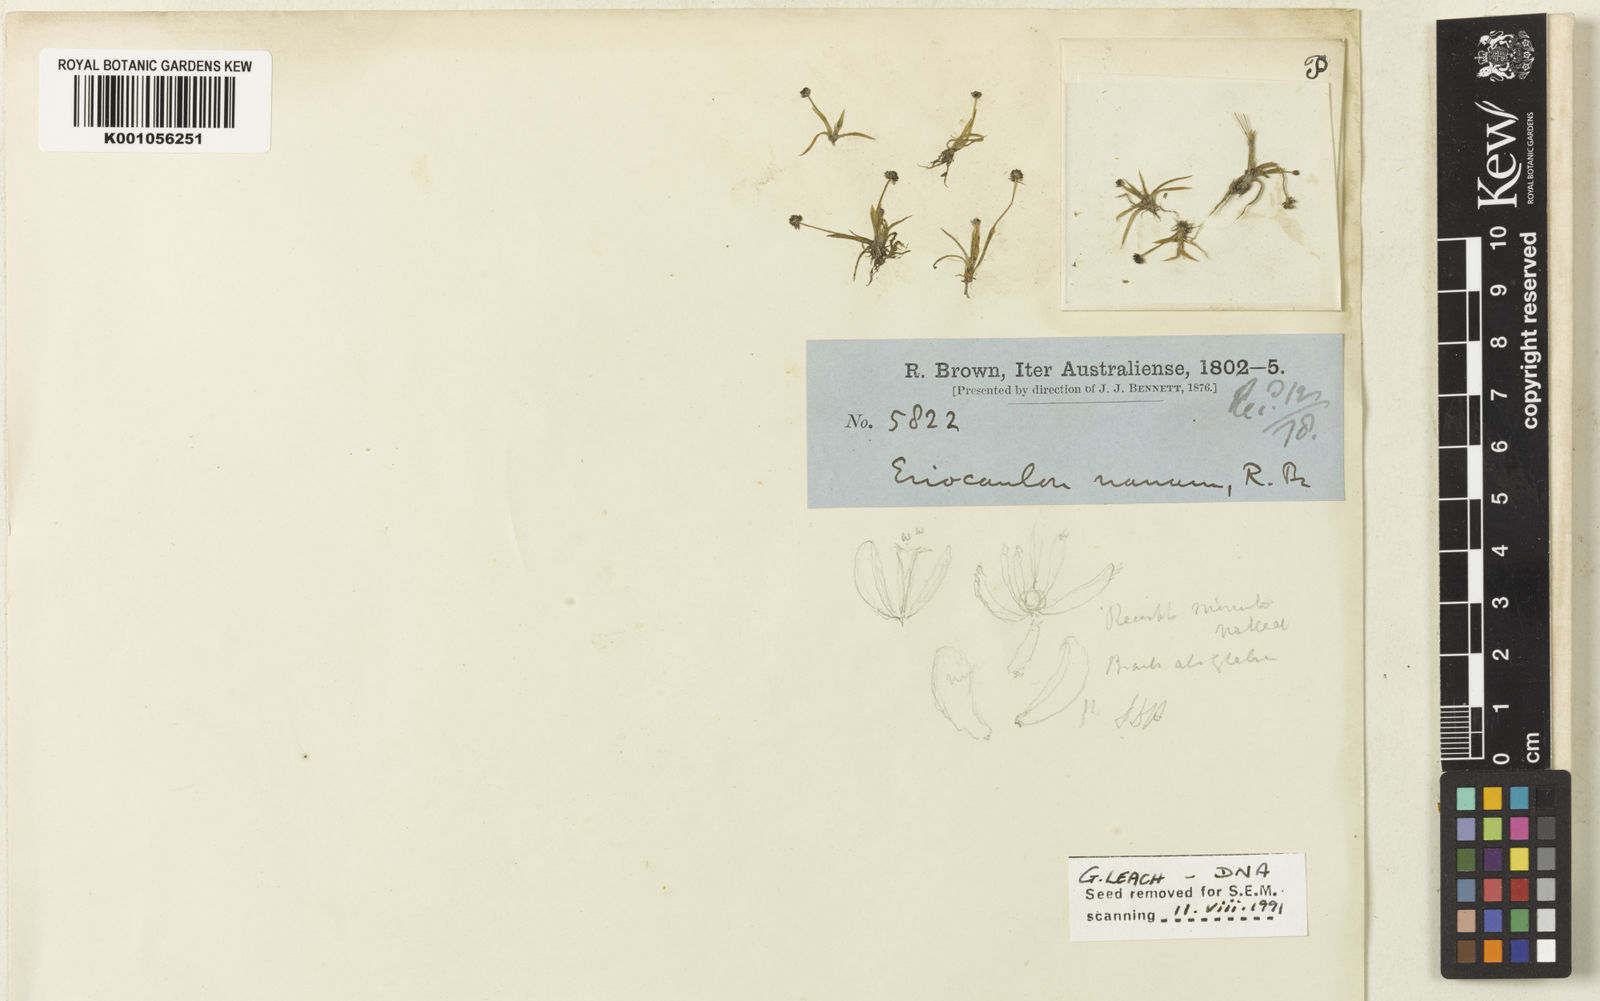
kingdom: Plantae
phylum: Tracheophyta
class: Liliopsida
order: Poales
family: Eriocaulaceae
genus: Eriocaulon
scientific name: Eriocaulon nanum
